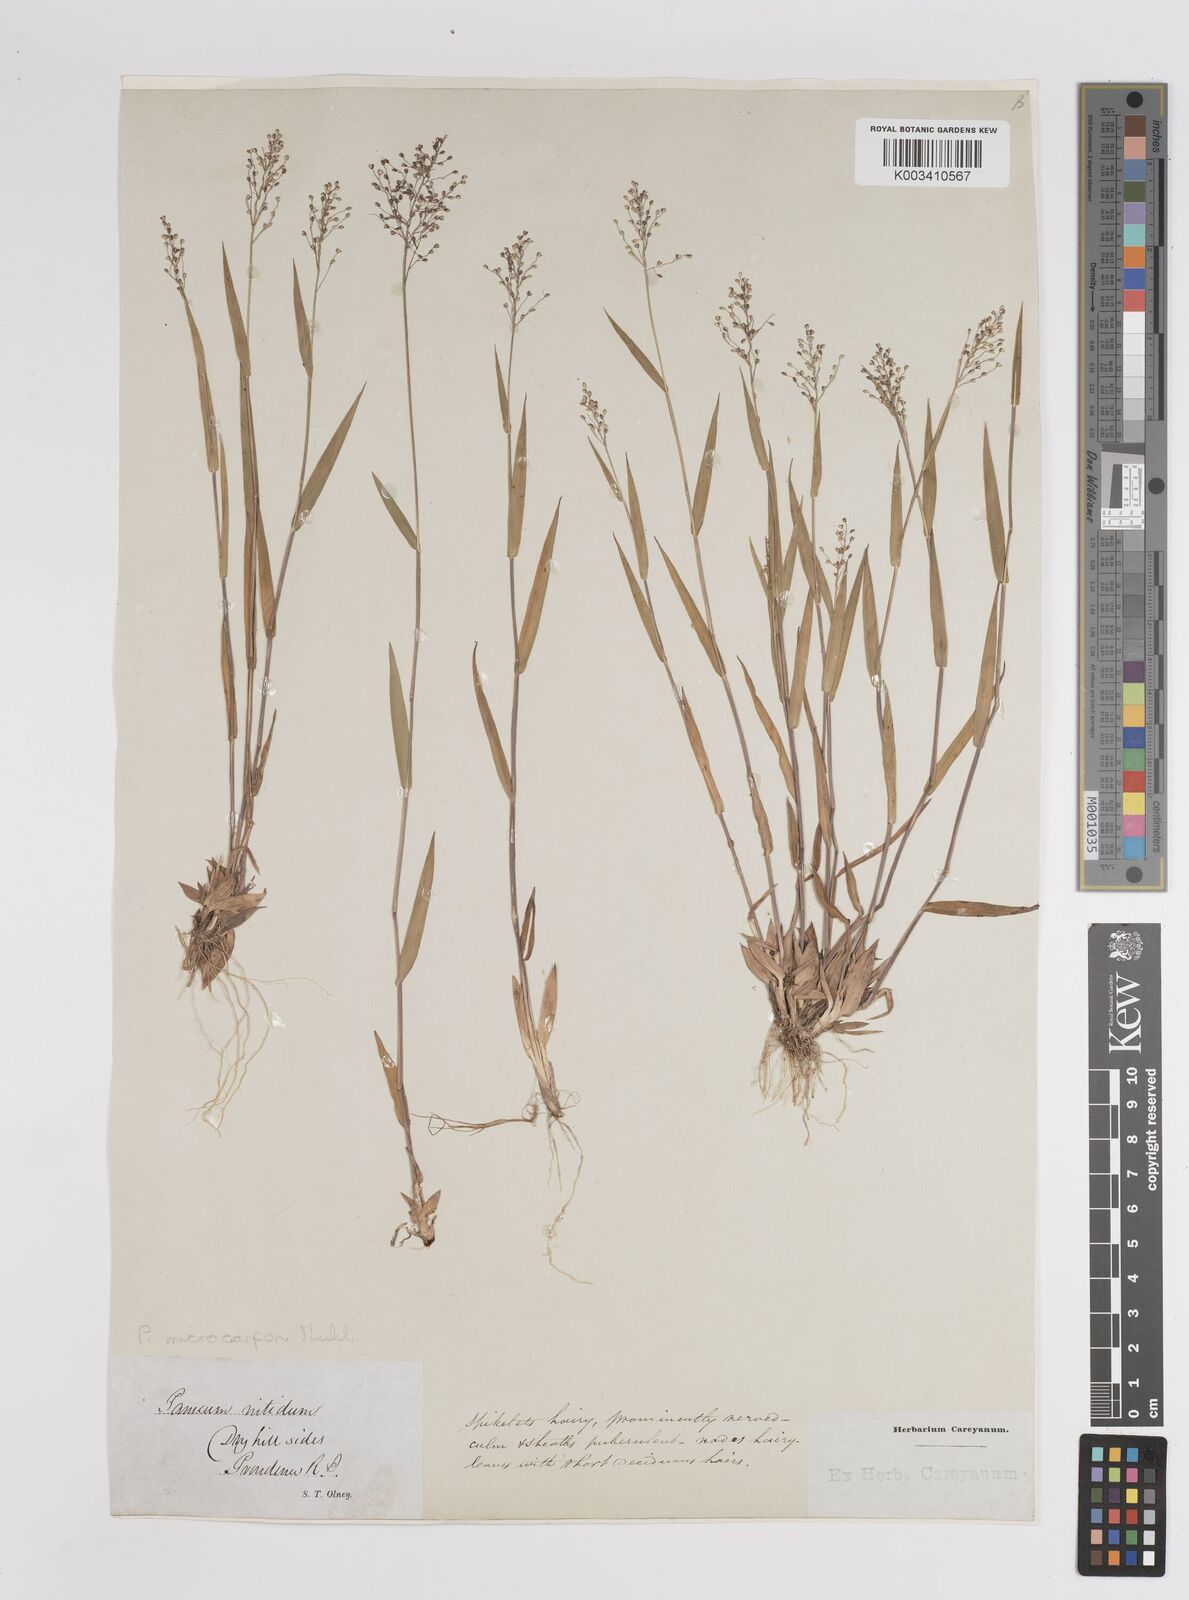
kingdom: Plantae
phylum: Tracheophyta
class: Liliopsida
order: Poales
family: Poaceae
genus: Dichanthelium
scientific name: Dichanthelium dichotomum
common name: Cypress panicgrass
